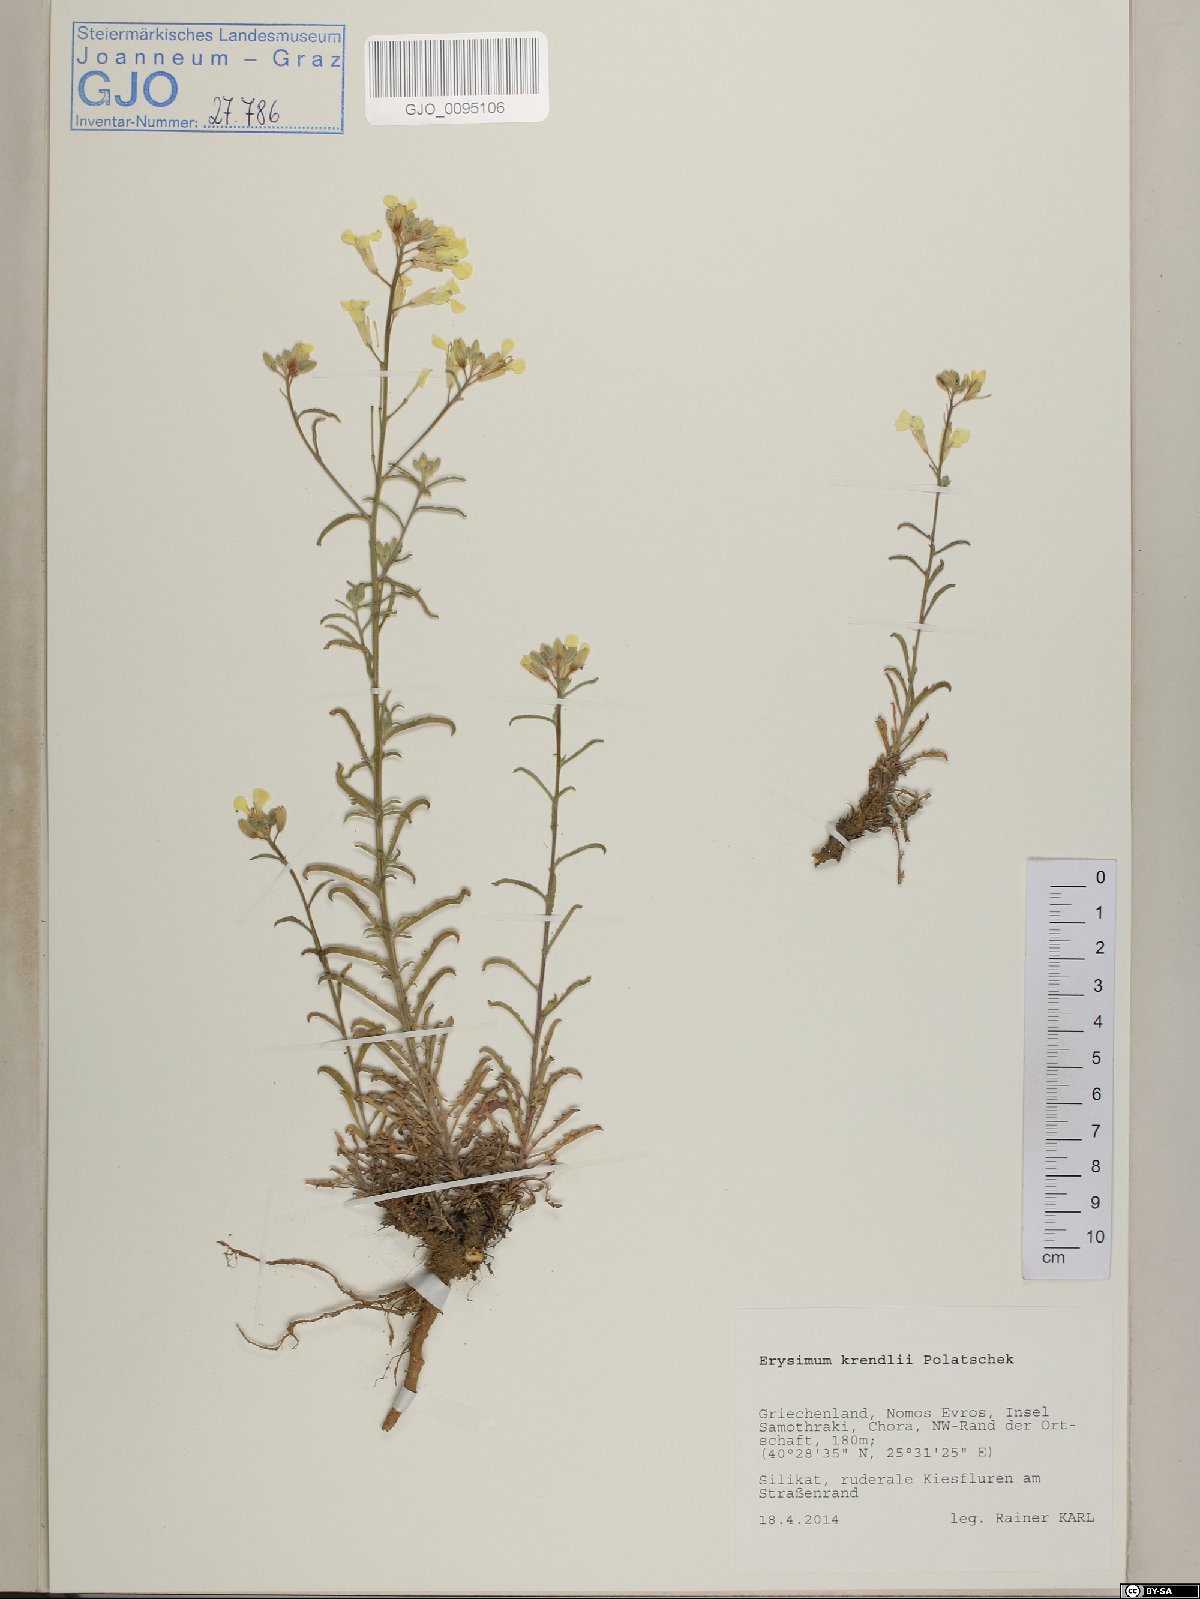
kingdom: Plantae
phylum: Tracheophyta
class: Magnoliopsida
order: Brassicales
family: Brassicaceae
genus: Erysimum
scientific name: Erysimum krendlii
